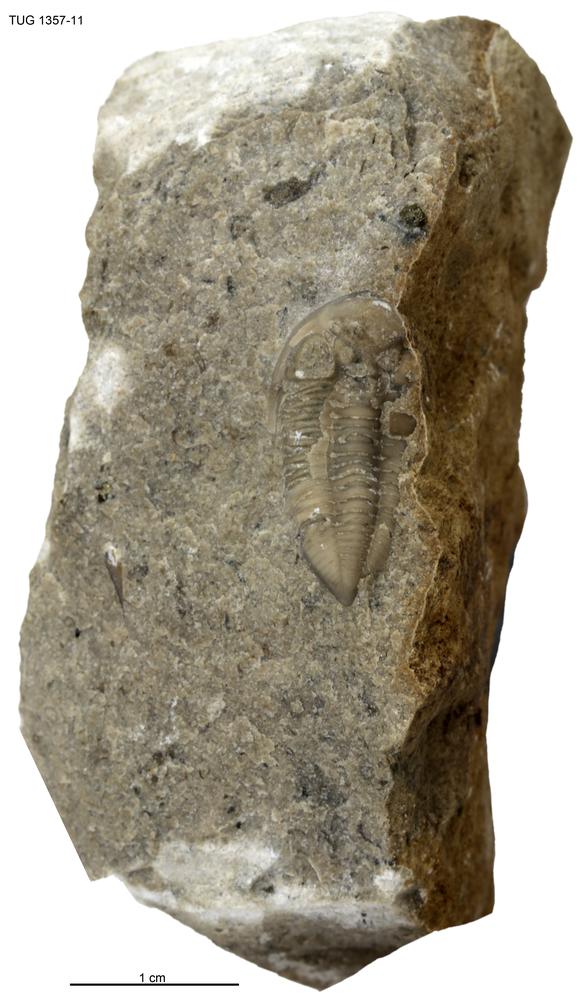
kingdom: Animalia
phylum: Arthropoda
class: Trilobita
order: Phacopida
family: Pterygometopidae
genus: Valdariops
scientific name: Valdariops angustus
